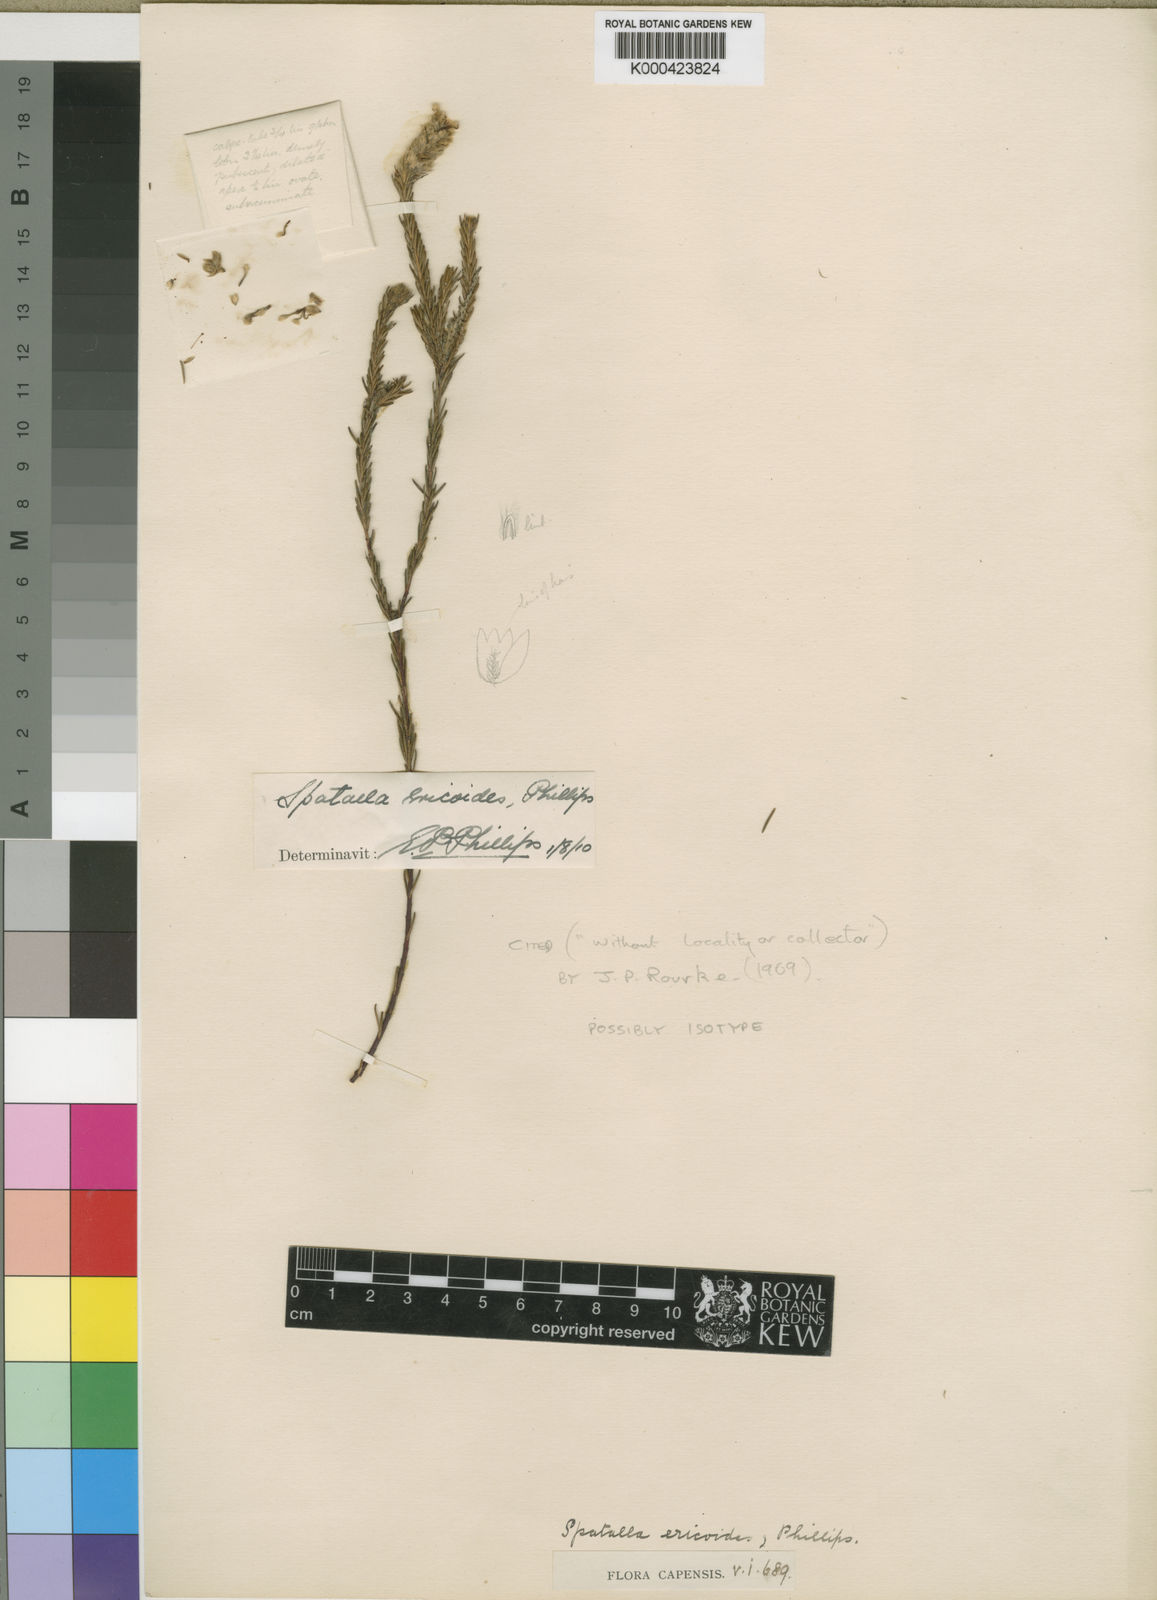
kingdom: Plantae
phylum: Tracheophyta
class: Magnoliopsida
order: Proteales
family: Proteaceae
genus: Spatalla
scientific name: Spatalla ericoides
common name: Erica-leaf spoon
